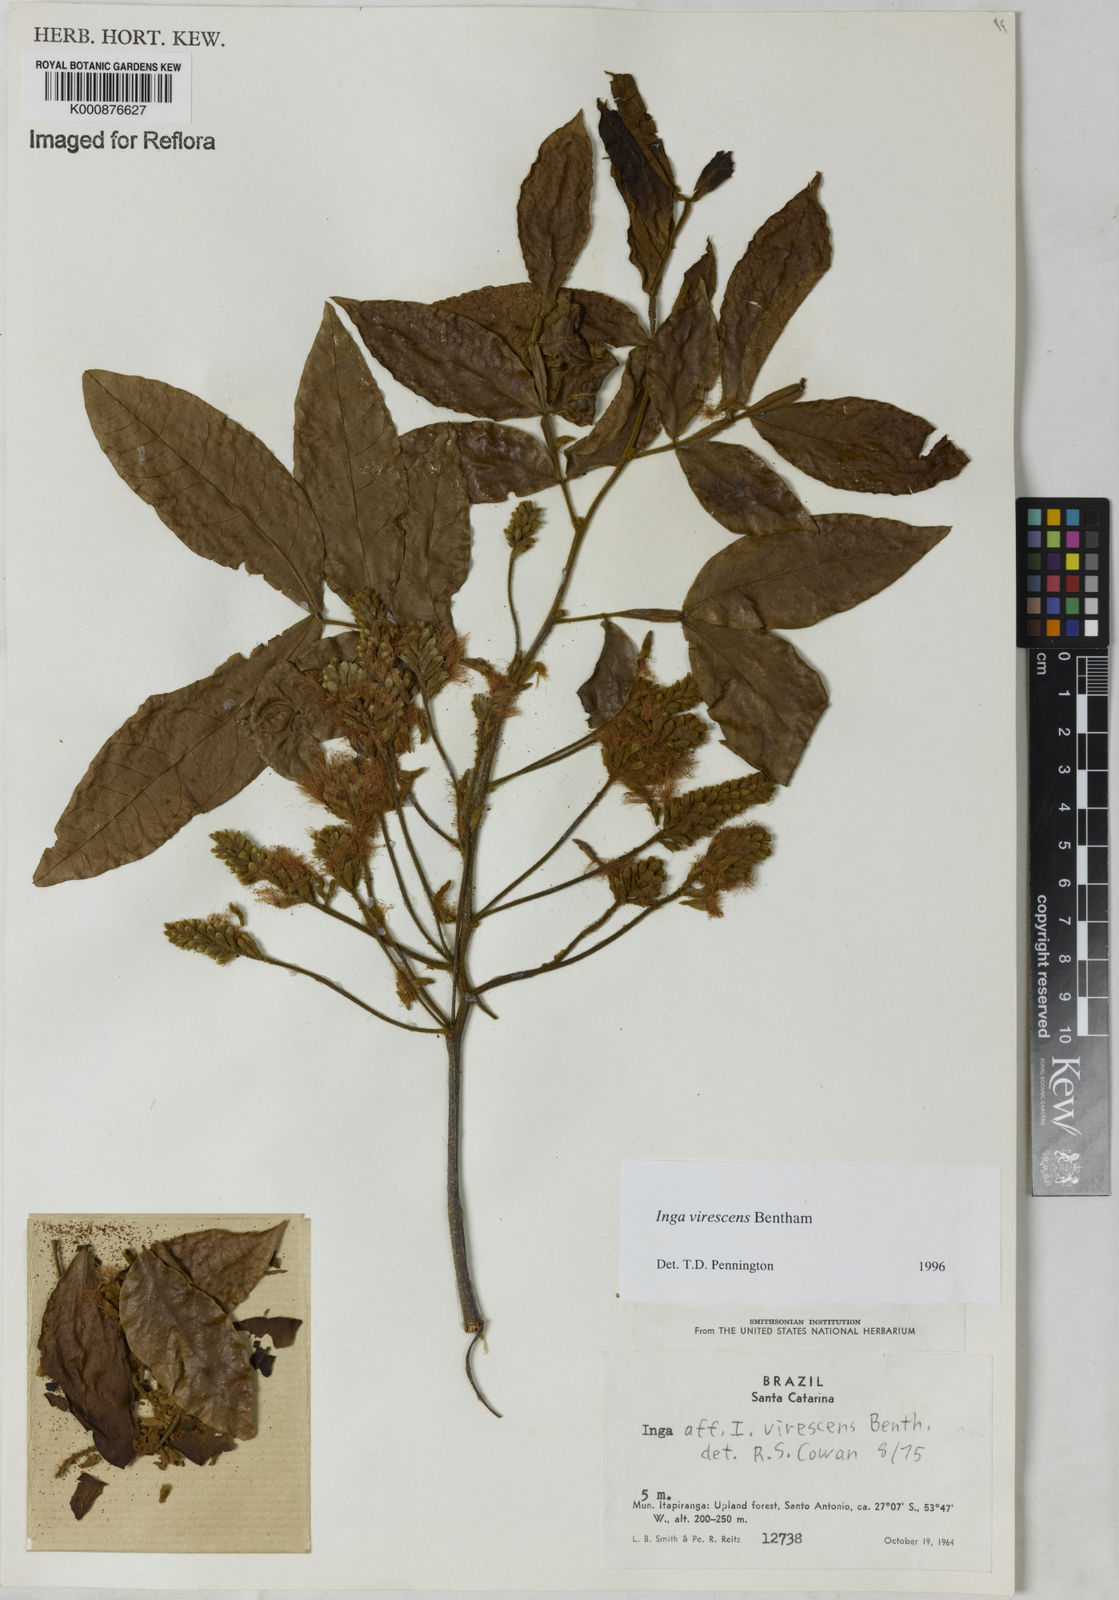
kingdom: Plantae
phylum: Tracheophyta
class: Magnoliopsida
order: Fabales
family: Fabaceae
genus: Inga
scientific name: Inga virescens
